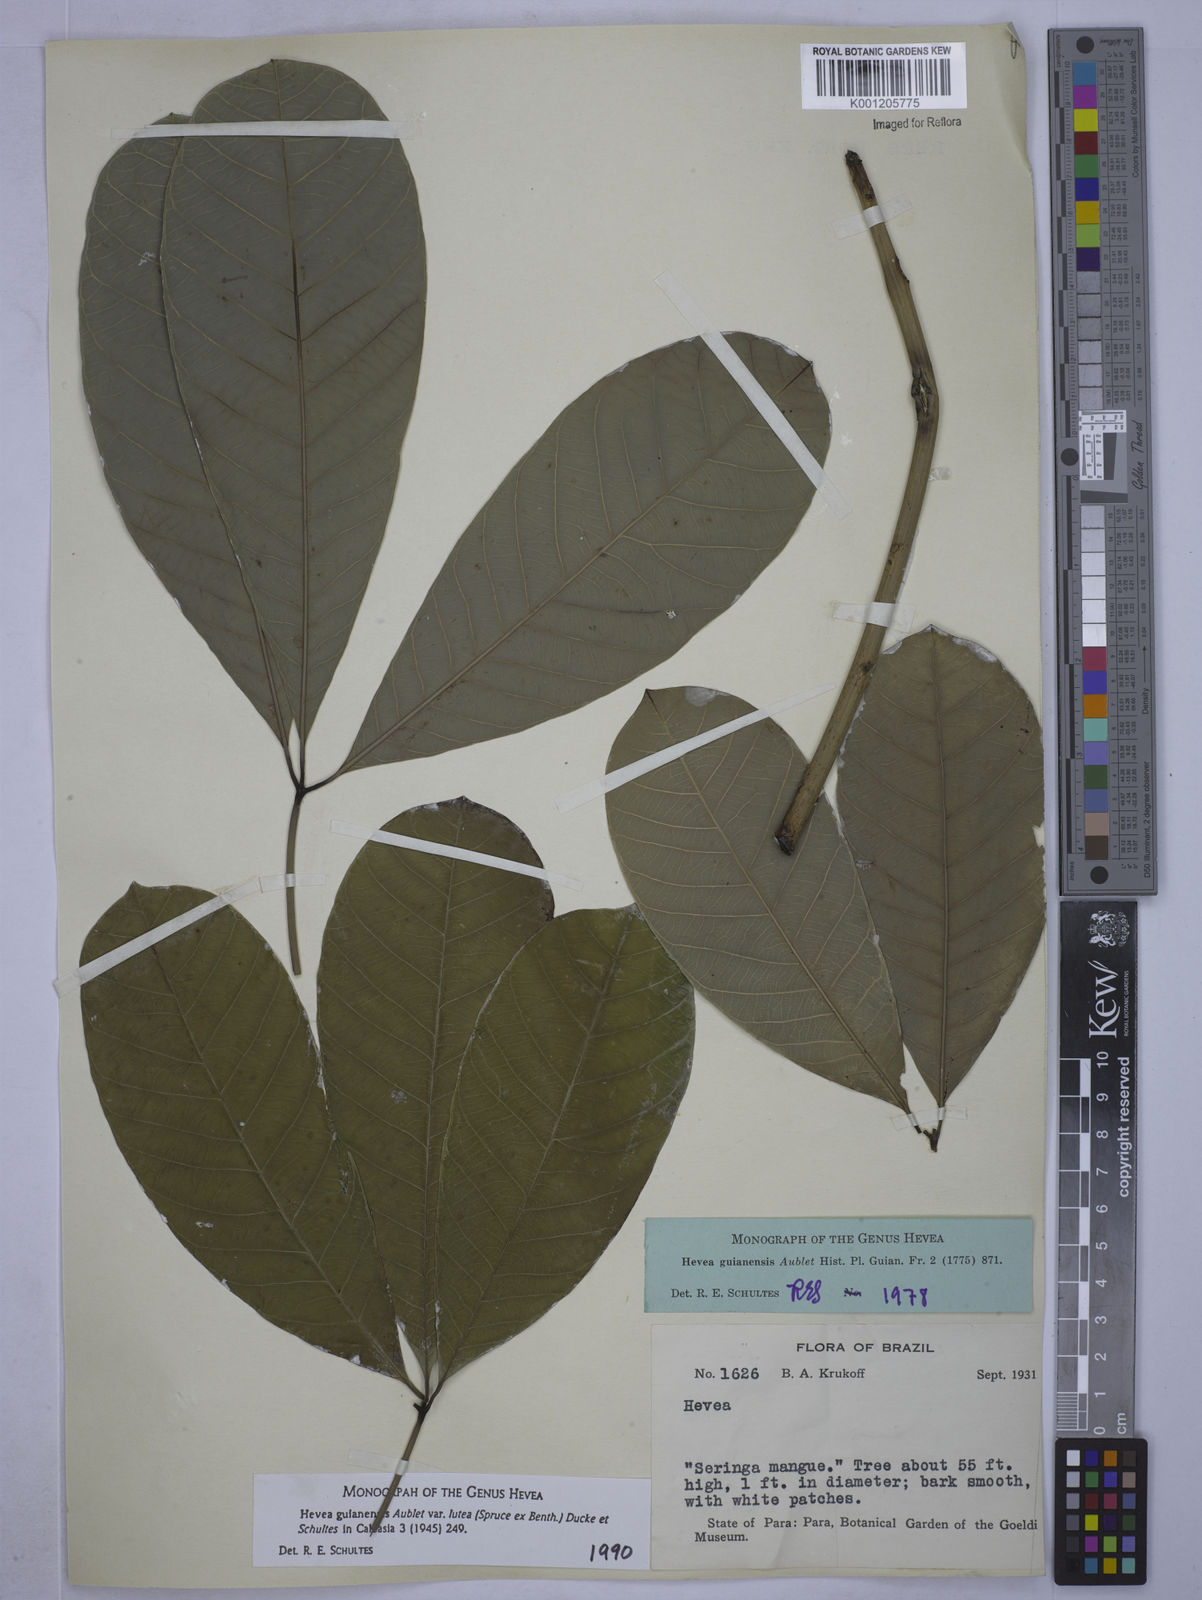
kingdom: Plantae
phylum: Tracheophyta
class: Magnoliopsida
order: Malpighiales
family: Euphorbiaceae
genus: Hevea
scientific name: Hevea guianensis
